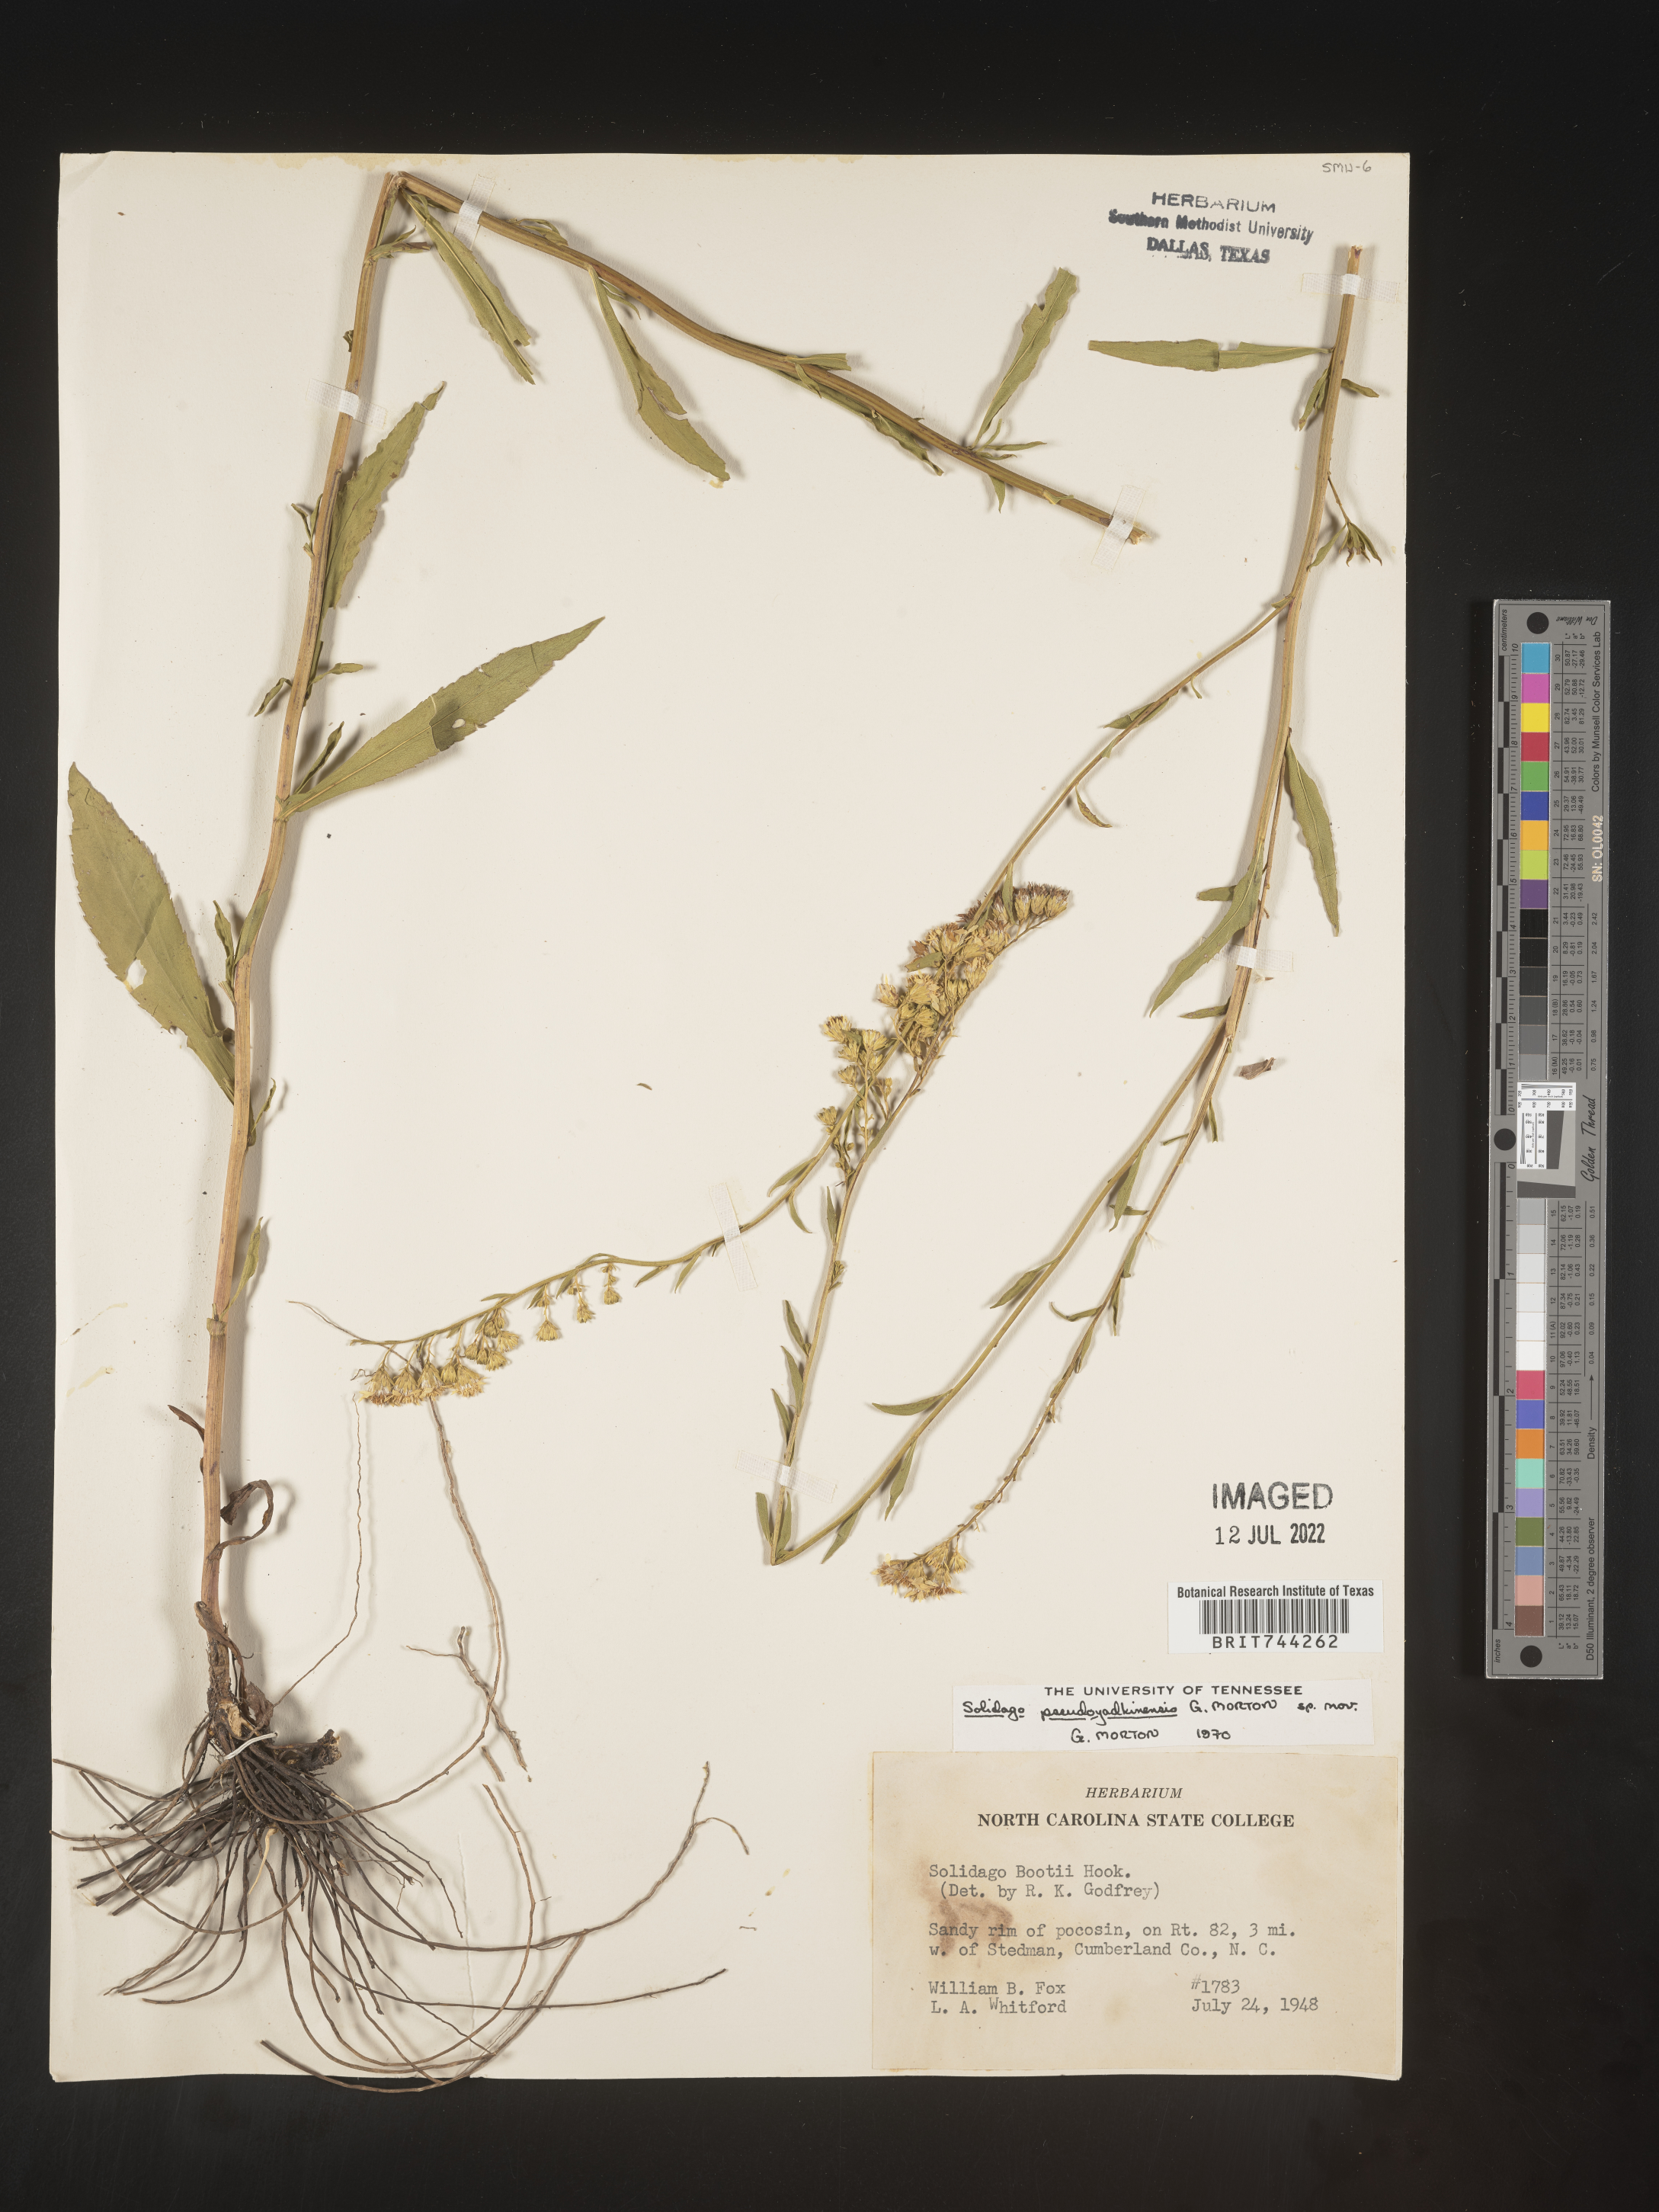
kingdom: Plantae
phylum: Tracheophyta
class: Magnoliopsida
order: Asterales
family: Asteraceae
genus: Solidago
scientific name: Solidago
